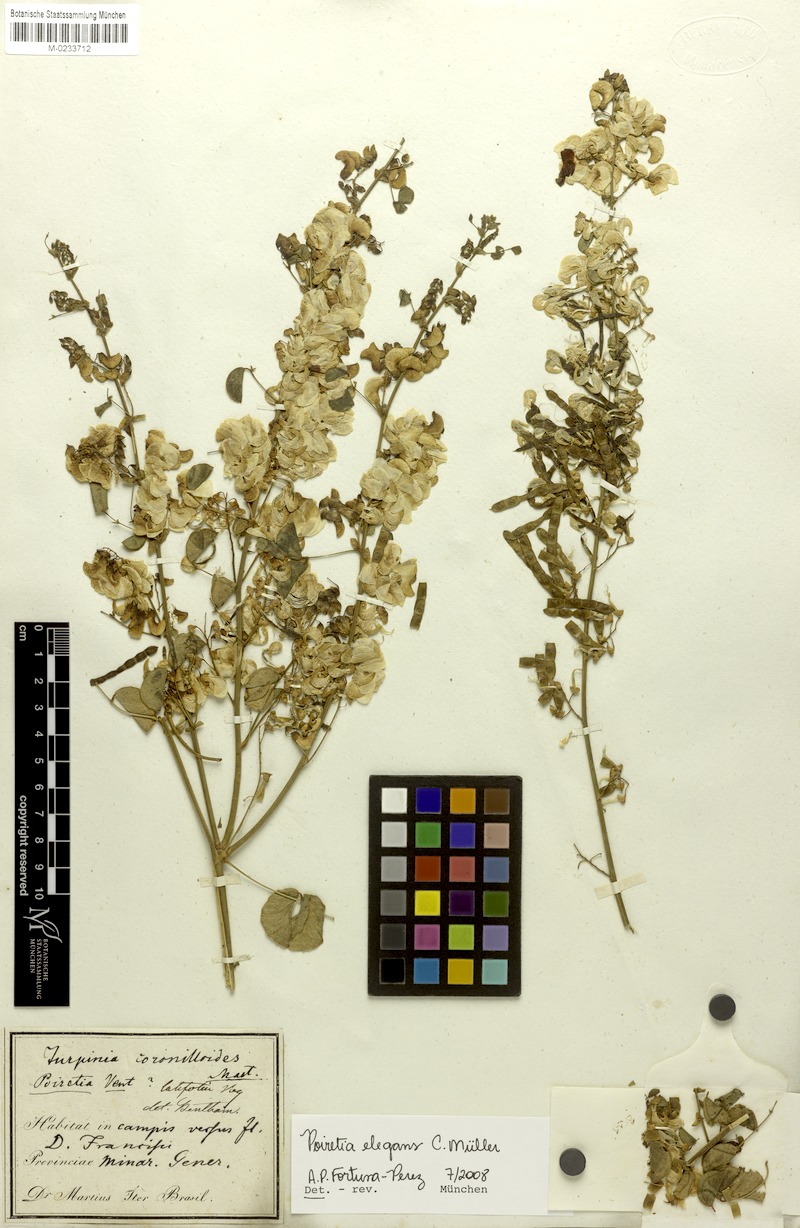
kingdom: Plantae
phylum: Tracheophyta
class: Magnoliopsida
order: Fabales
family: Fabaceae
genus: Poiretia
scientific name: Poiretia elegans
